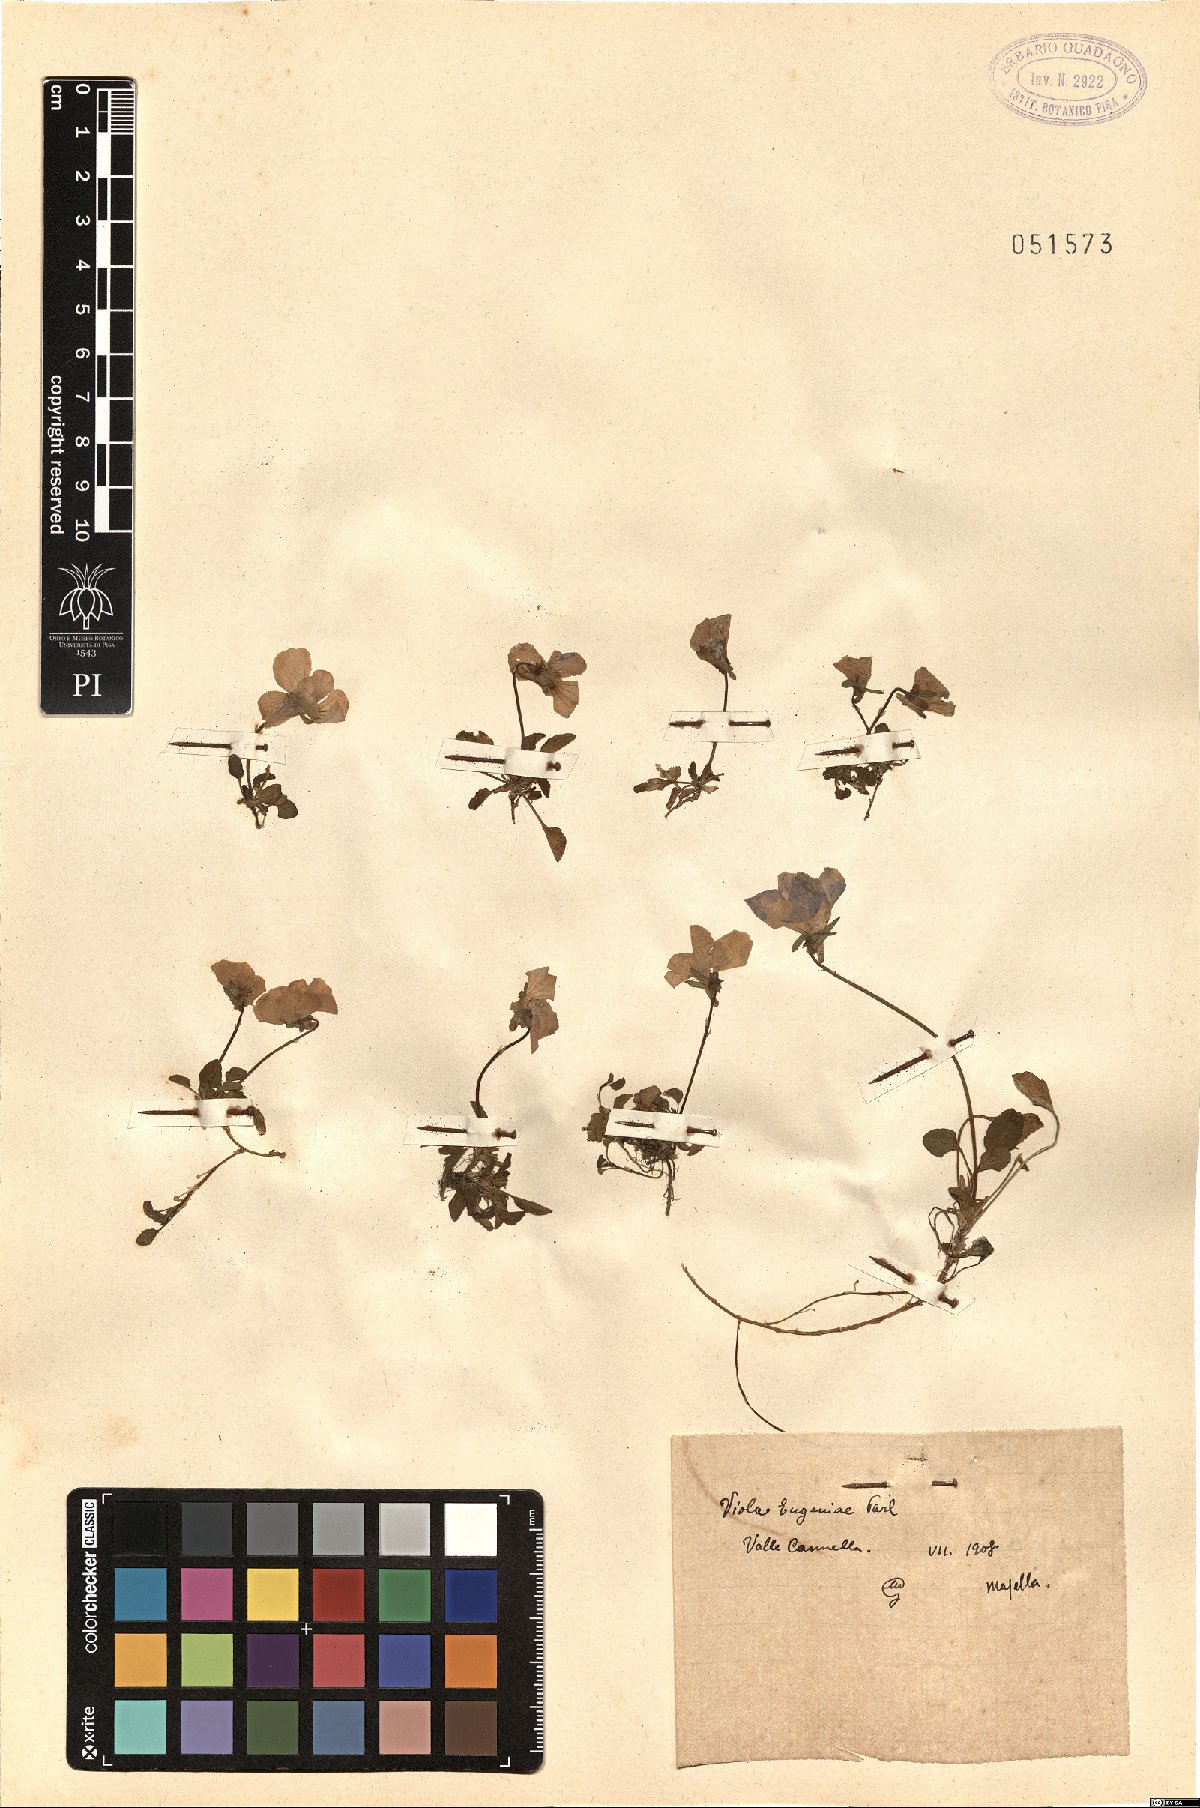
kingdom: Plantae
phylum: Tracheophyta
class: Magnoliopsida
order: Malpighiales
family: Violaceae
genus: Viola
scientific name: Viola eugeniae
